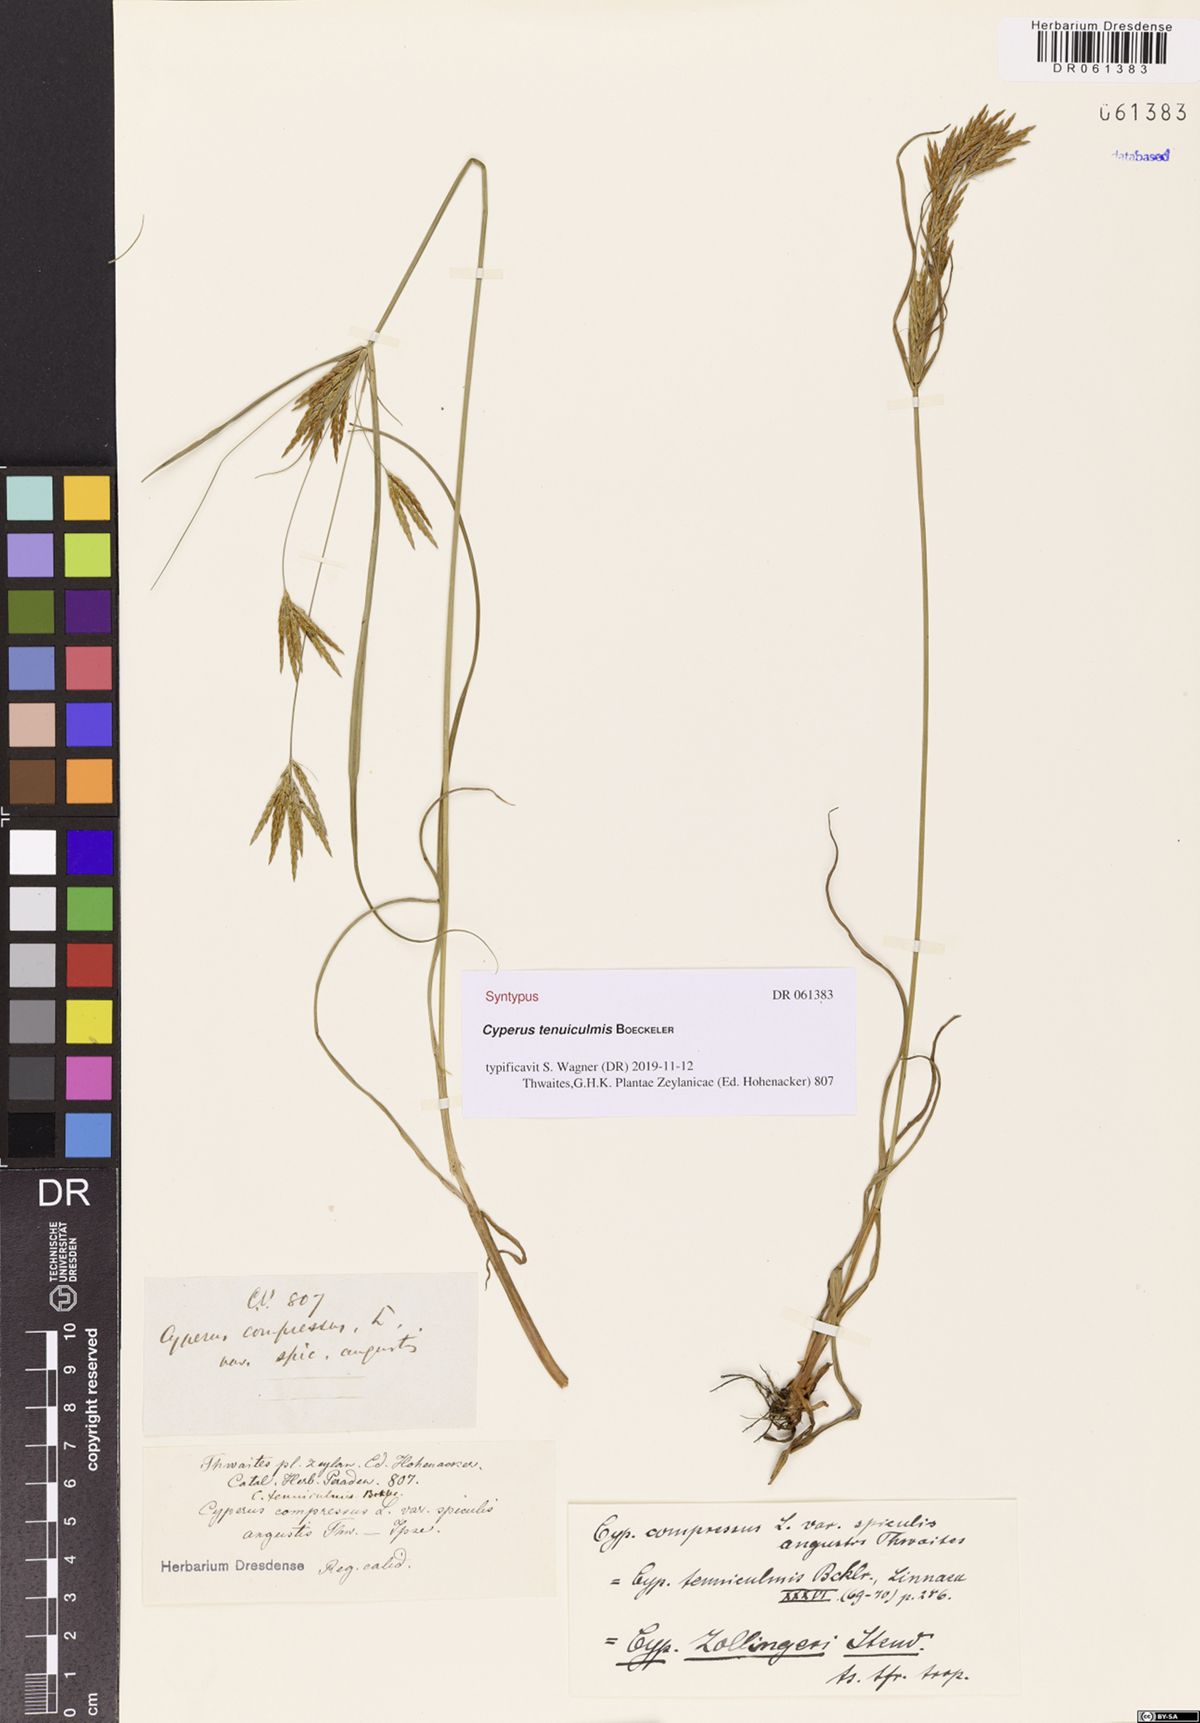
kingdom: Plantae
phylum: Tracheophyta
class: Liliopsida
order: Poales
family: Cyperaceae
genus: Cyperus
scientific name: Cyperus tenuiculmis
